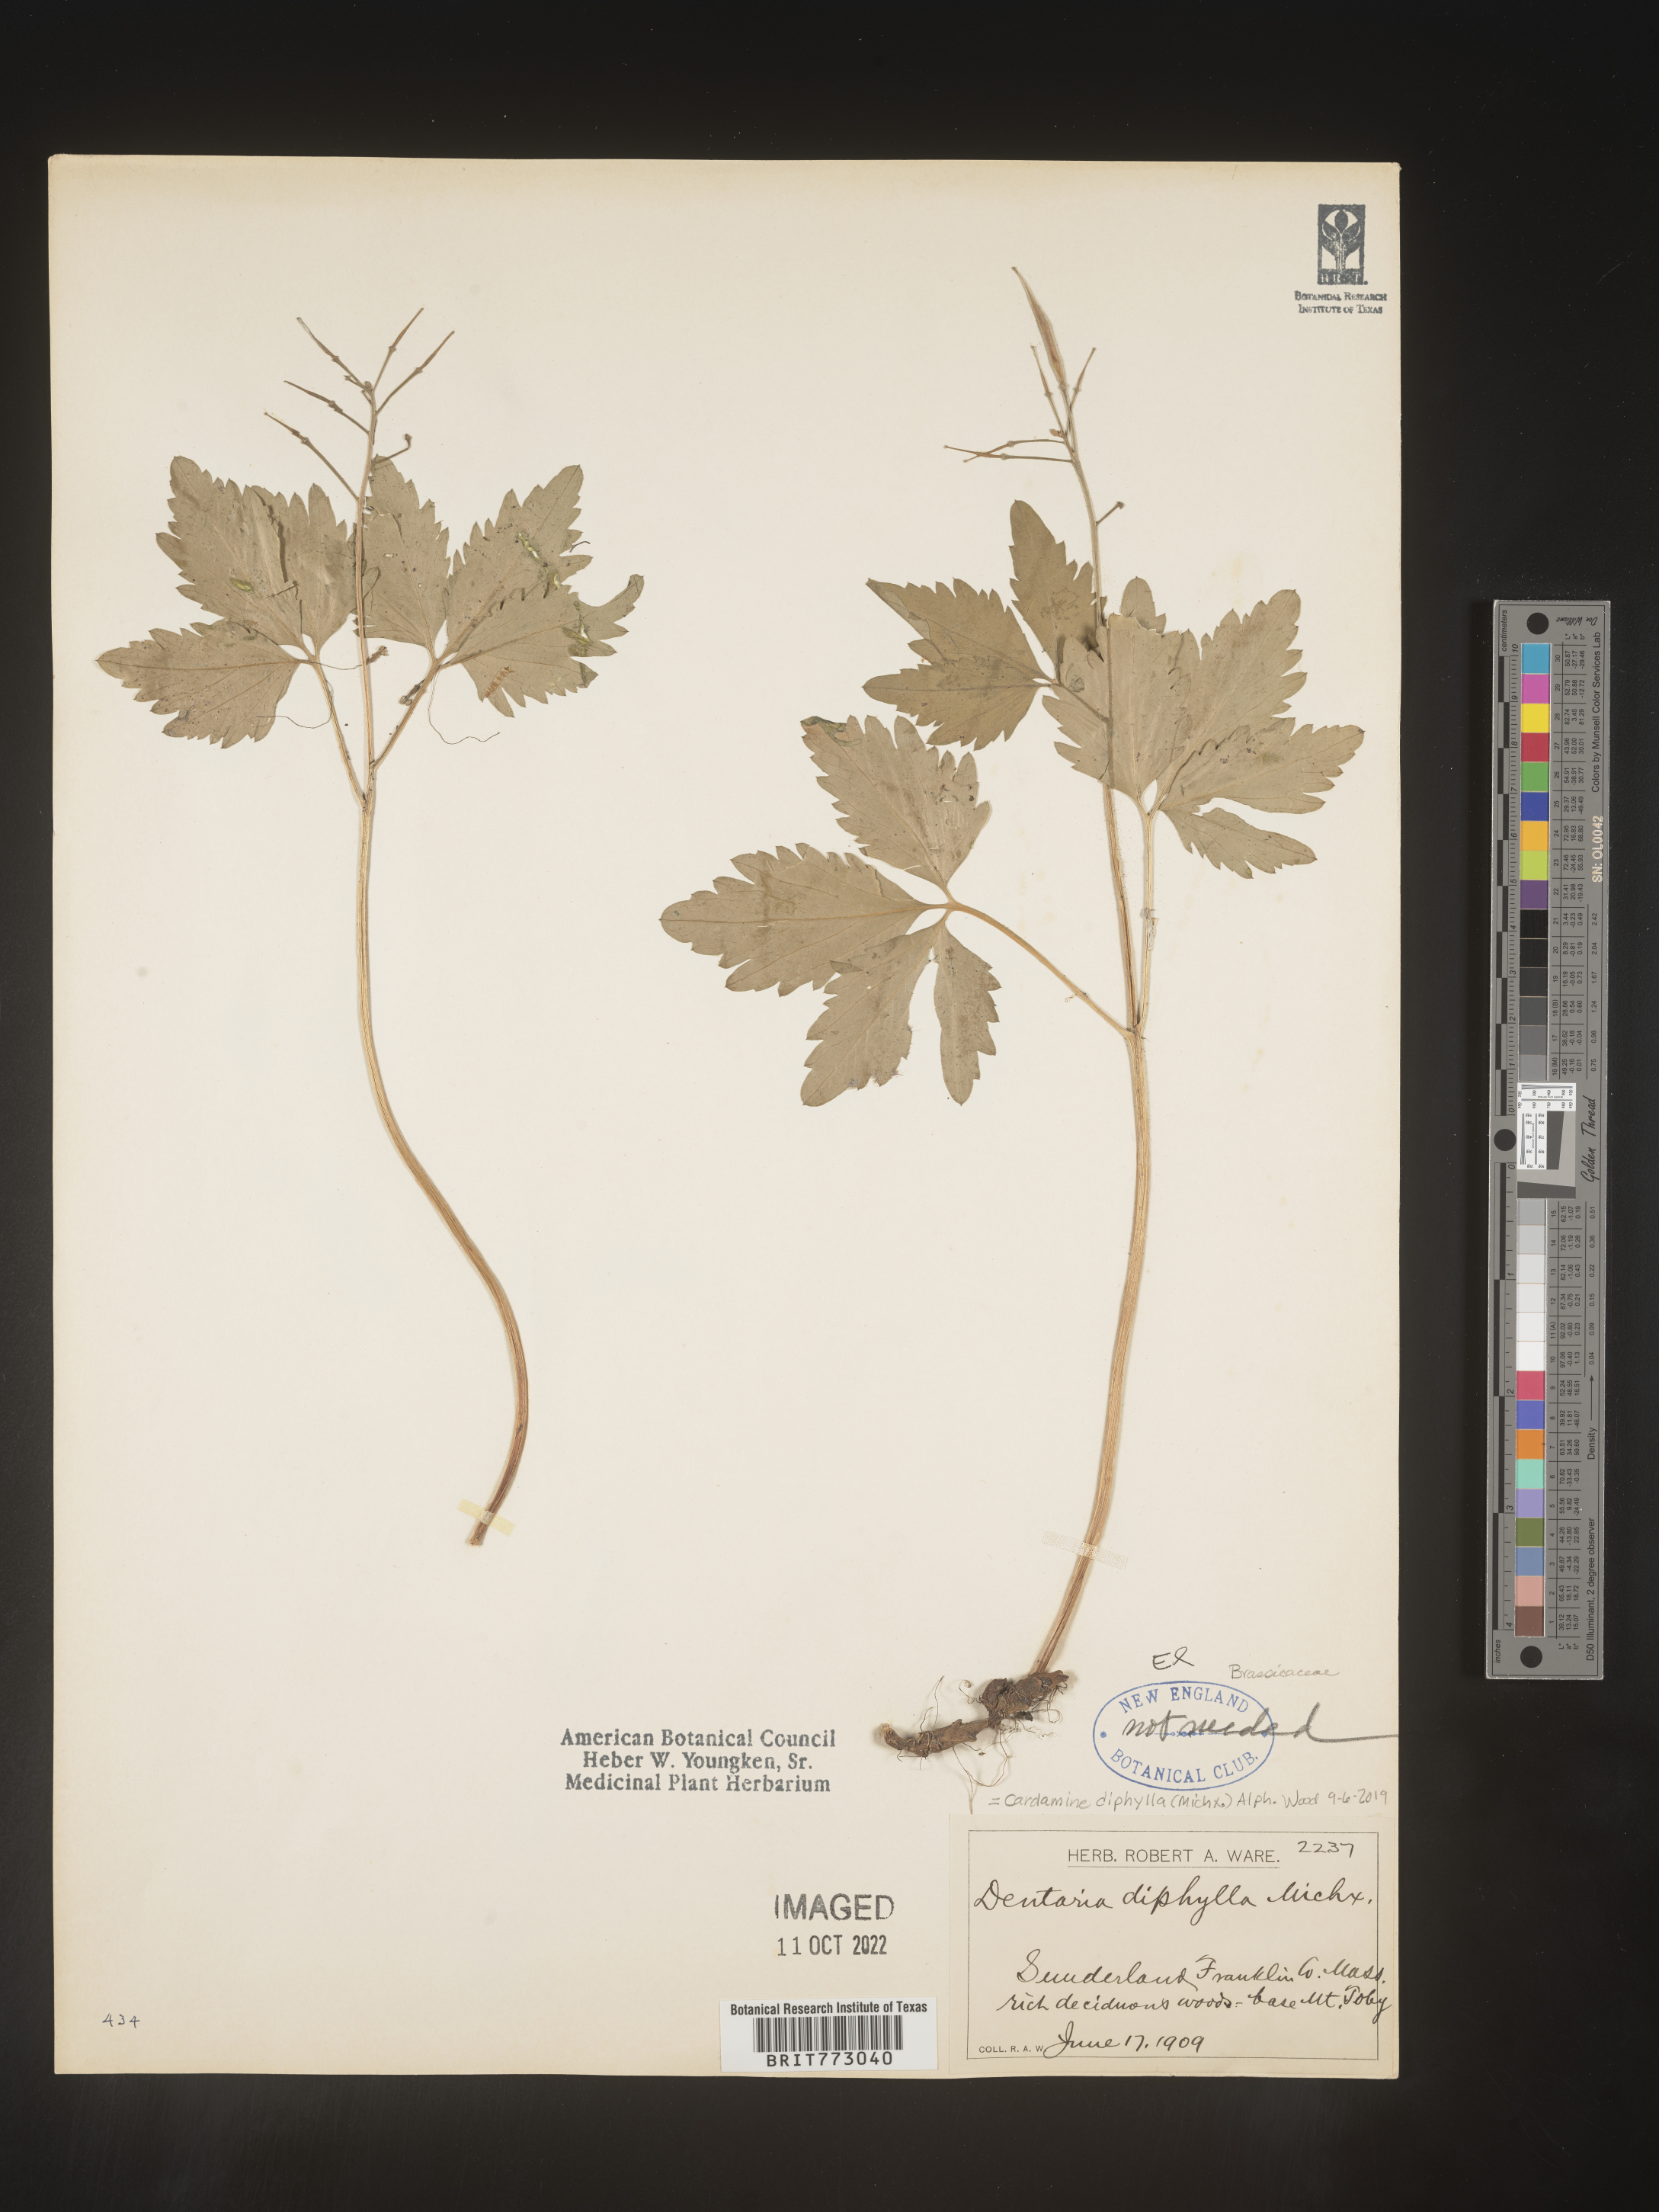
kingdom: Plantae
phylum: Tracheophyta
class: Magnoliopsida
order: Brassicales
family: Brassicaceae
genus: Cardamine
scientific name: Cardamine diphylla
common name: Broad-leaved toothwort
